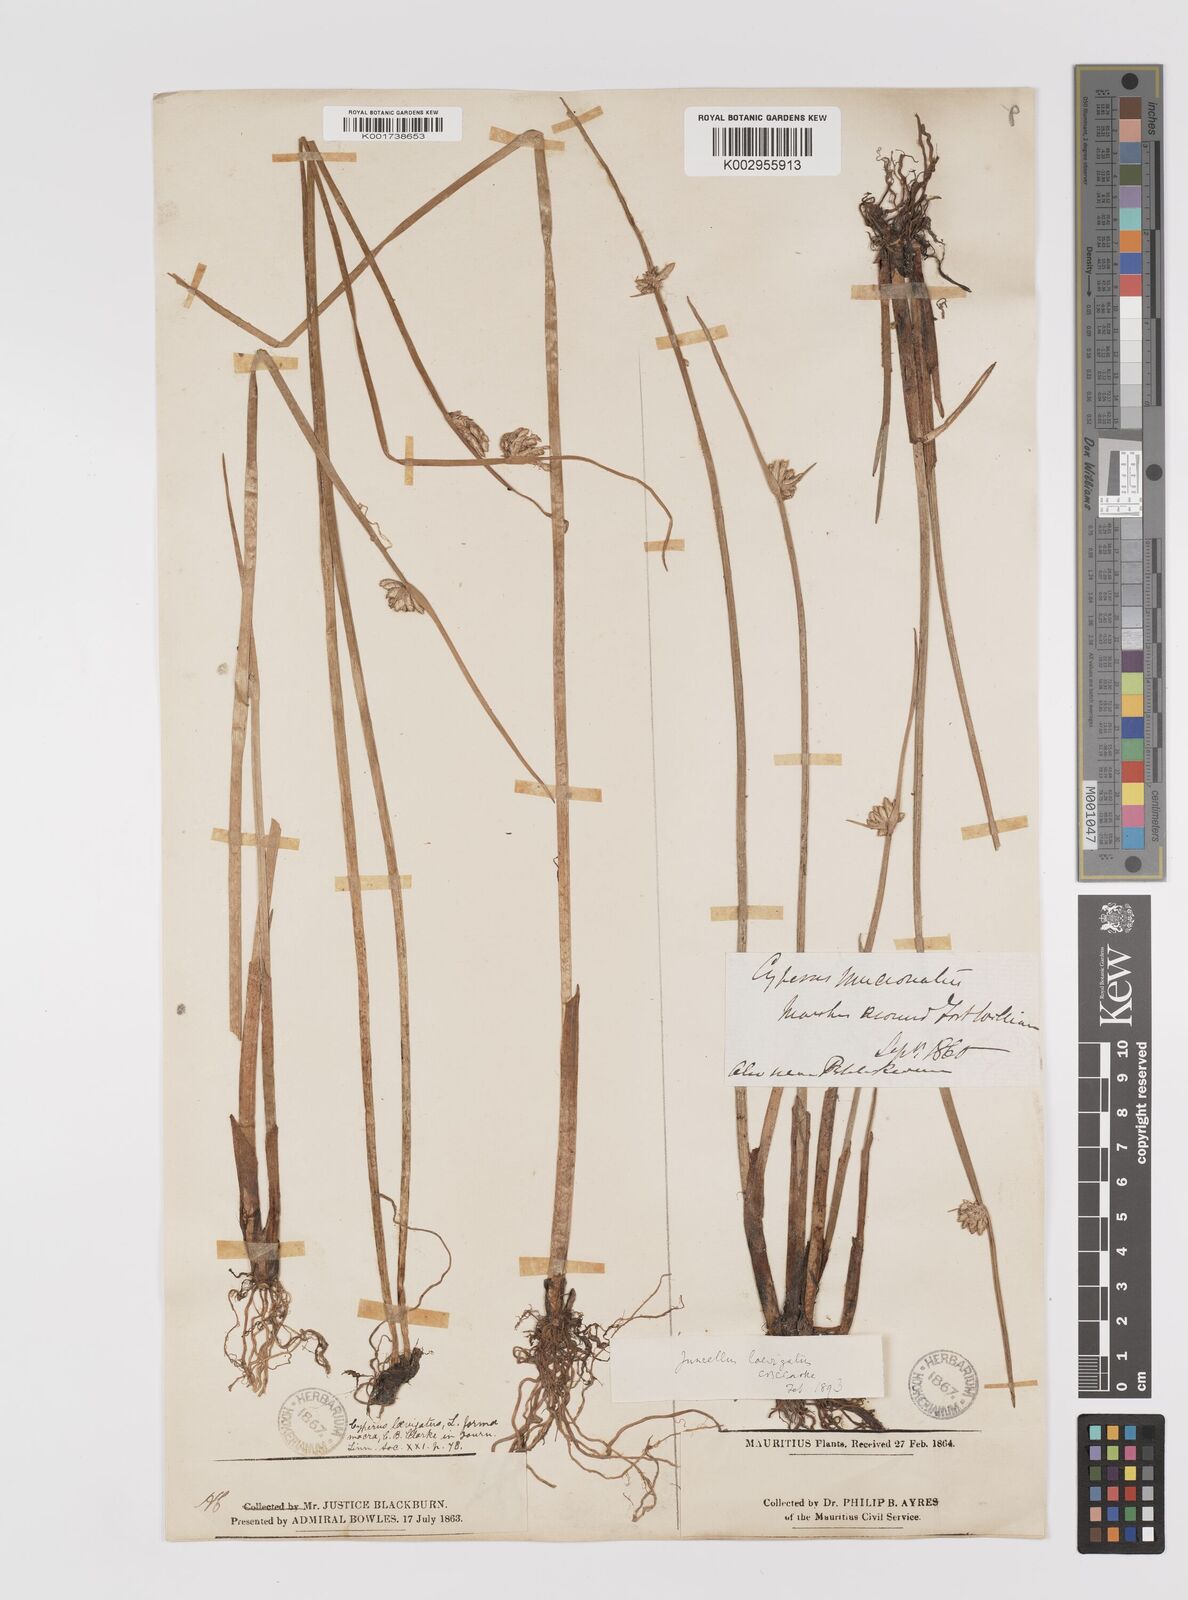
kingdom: Plantae
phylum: Tracheophyta
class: Liliopsida
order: Poales
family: Cyperaceae
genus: Cyperus
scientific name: Cyperus laevigatus
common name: Smooth flat sedge
